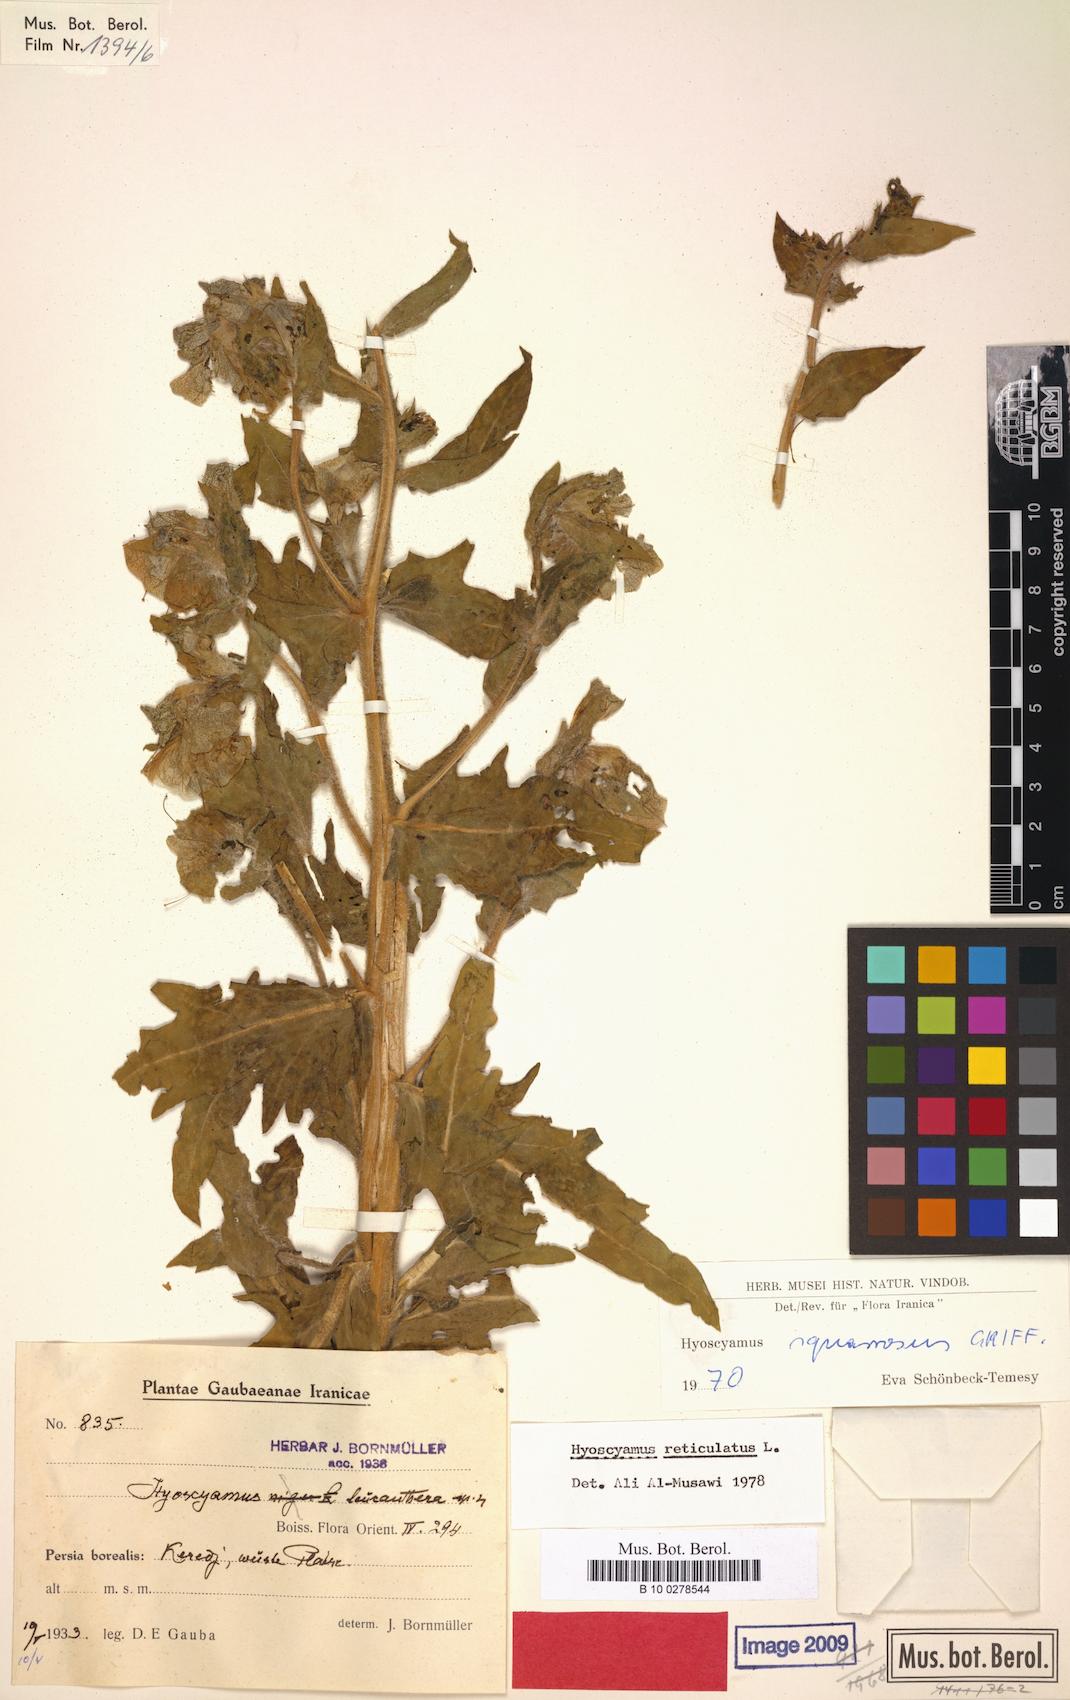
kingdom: Plantae
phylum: Tracheophyta
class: Magnoliopsida
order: Solanales
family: Solanaceae
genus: Hyoscyamus
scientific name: Hyoscyamus leucanthera
